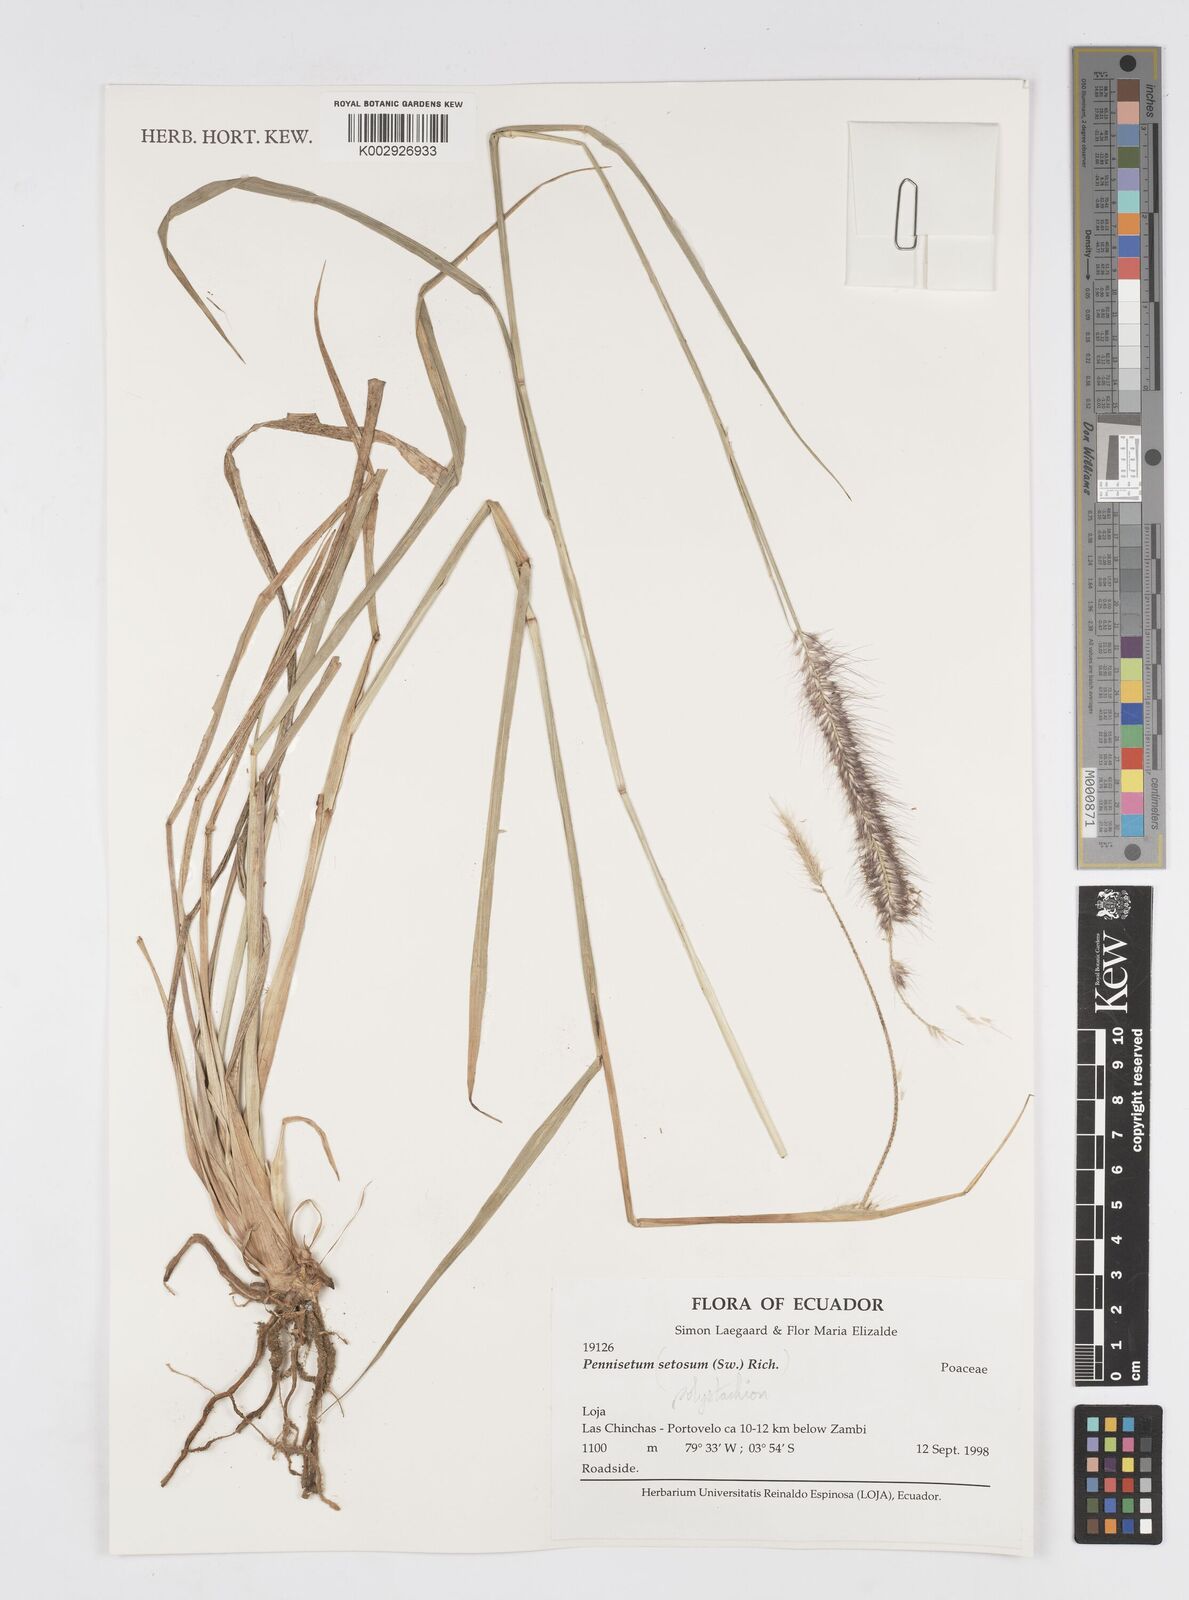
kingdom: Plantae
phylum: Tracheophyta
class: Liliopsida
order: Poales
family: Poaceae
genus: Setaria
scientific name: Setaria parviflora
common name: Knotroot bristle-grass
